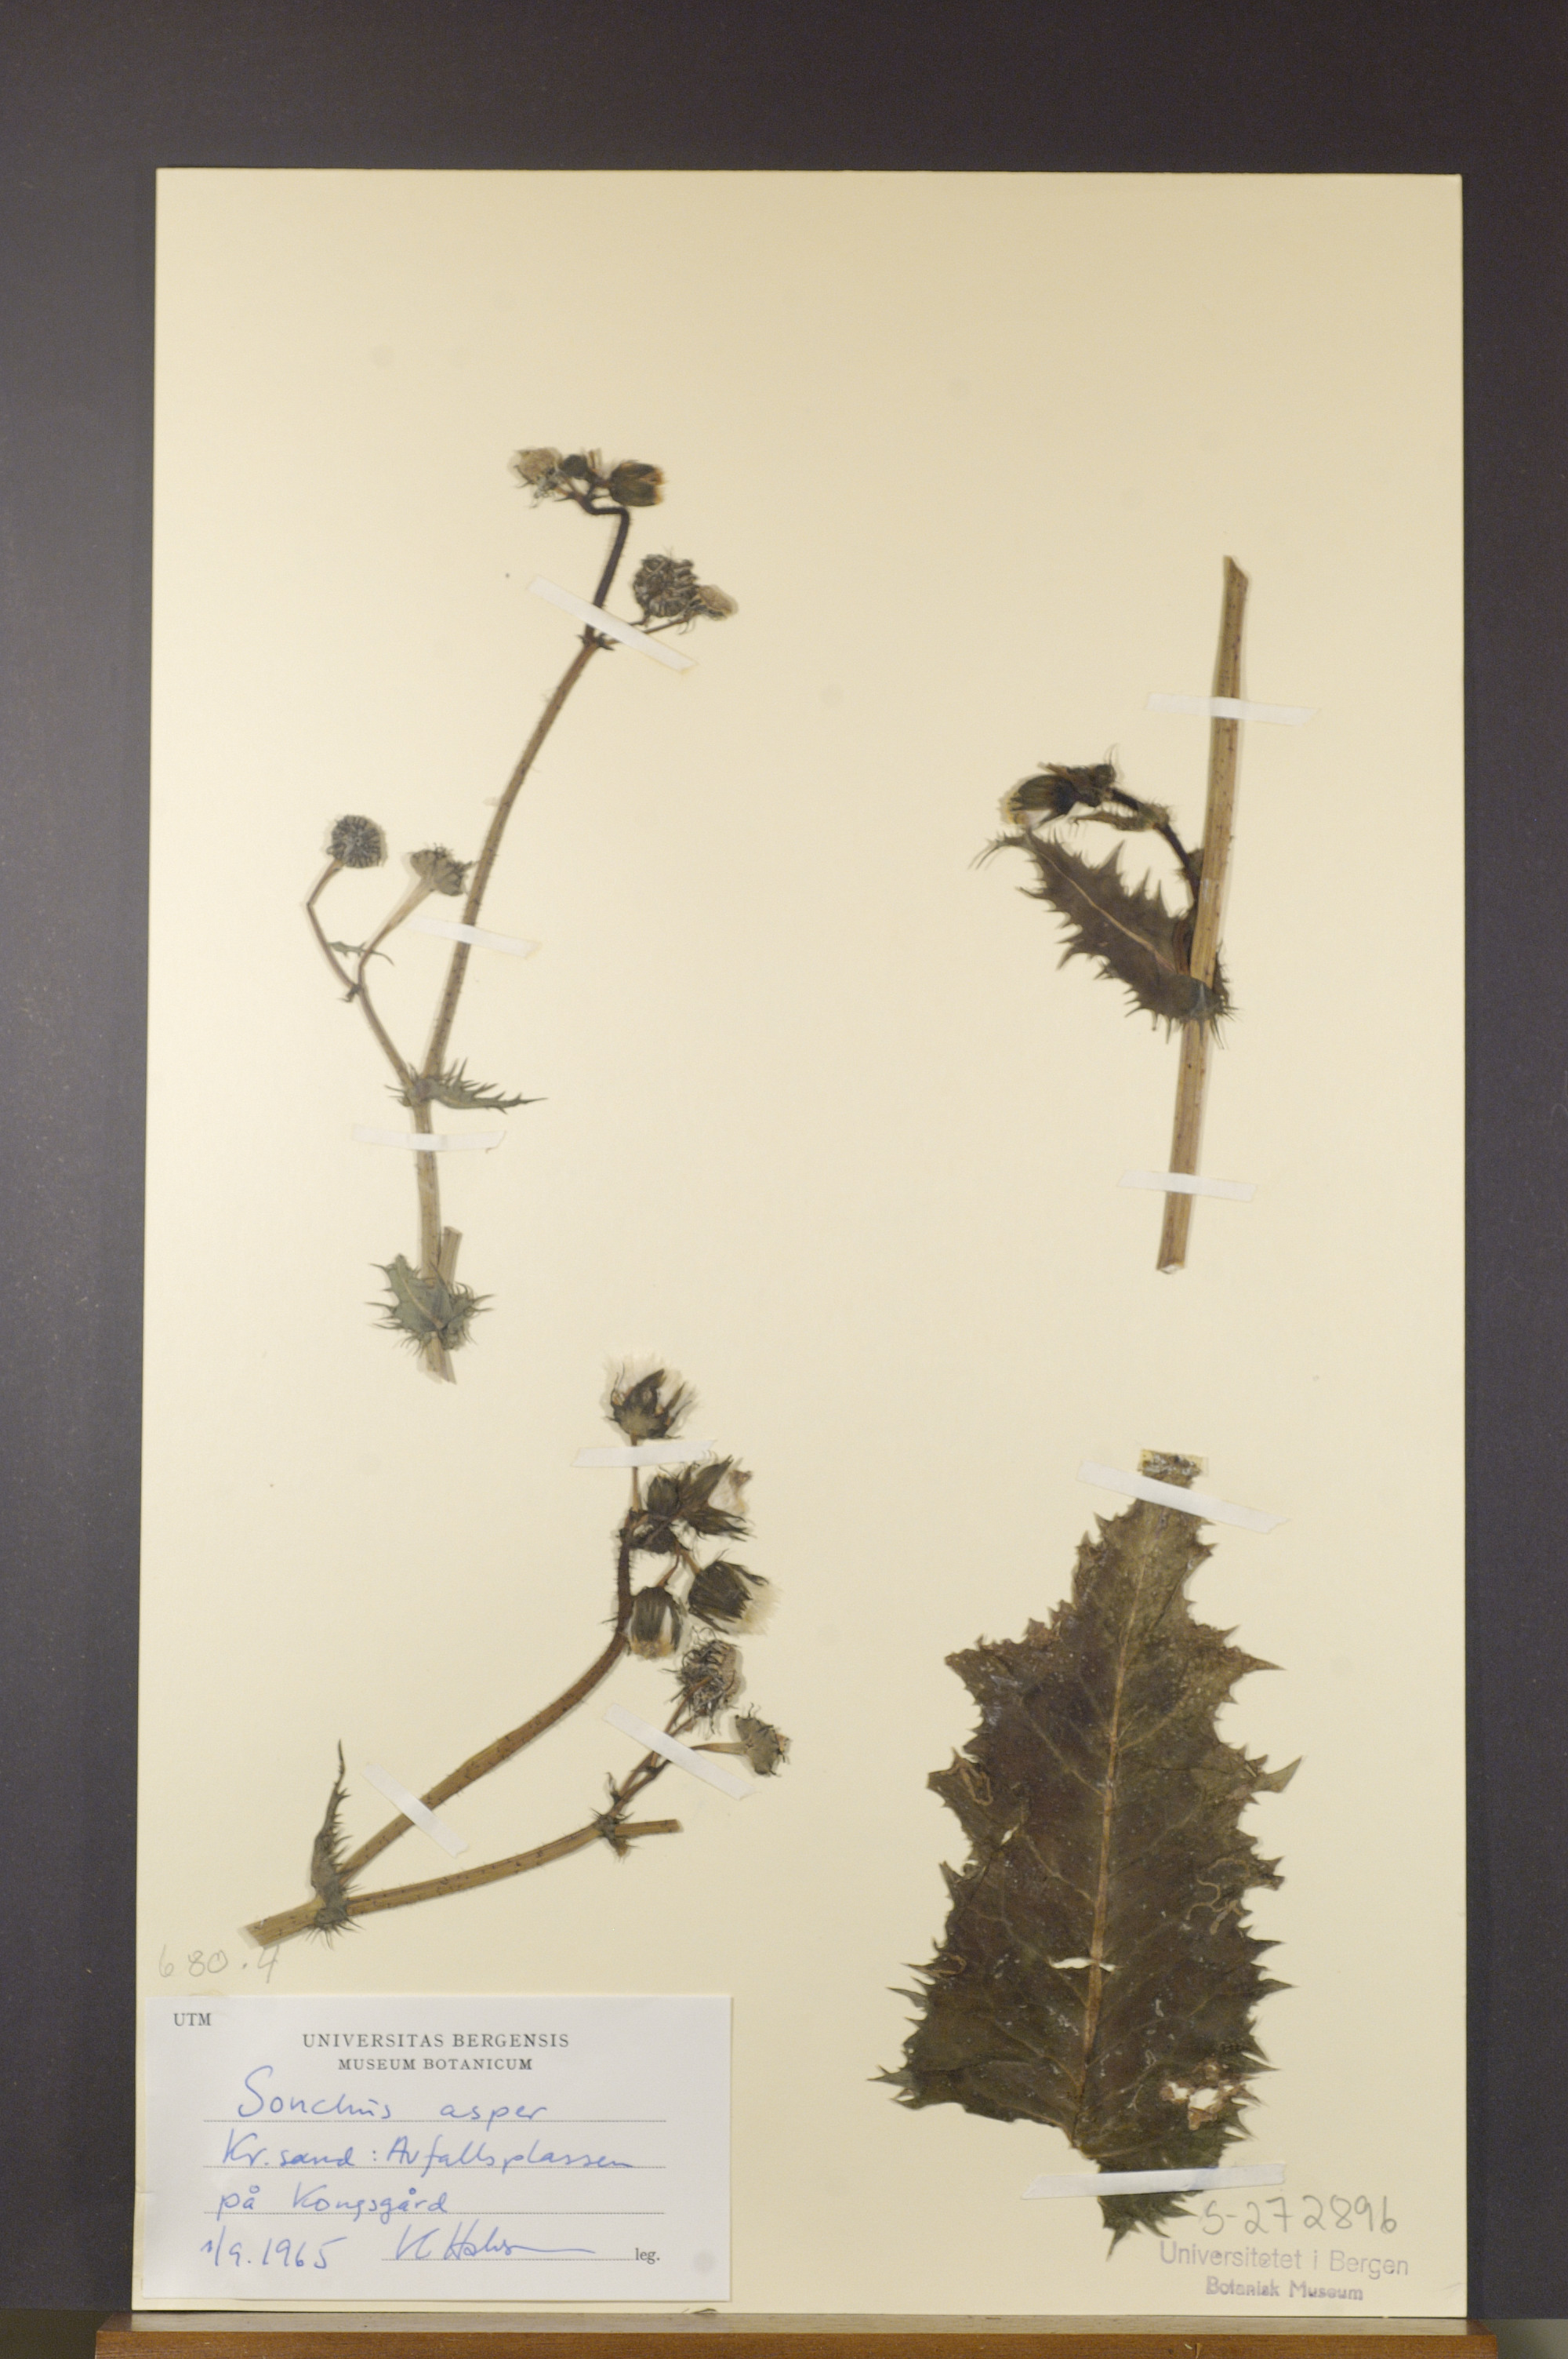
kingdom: Plantae
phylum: Tracheophyta
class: Magnoliopsida
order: Asterales
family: Asteraceae
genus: Sonchus
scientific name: Sonchus asper
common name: Prickly sow-thistle
